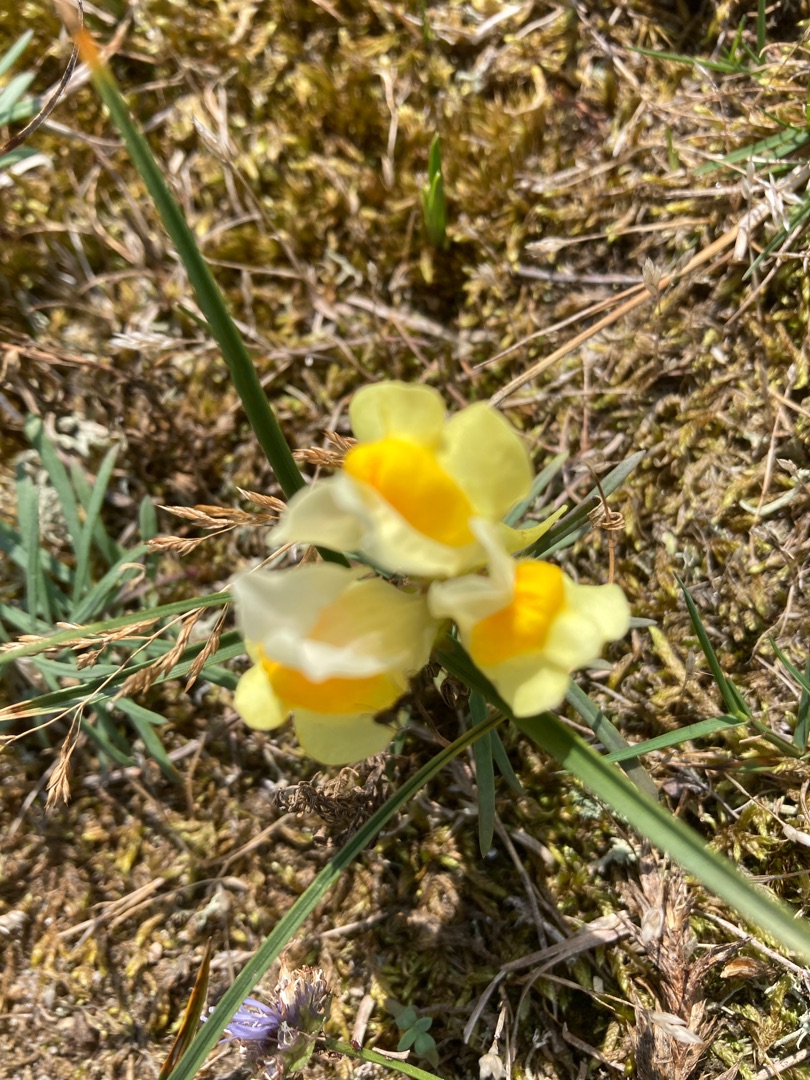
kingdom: Plantae
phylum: Tracheophyta
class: Magnoliopsida
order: Lamiales
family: Plantaginaceae
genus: Linaria
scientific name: Linaria vulgaris
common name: Almindelig torskemund
